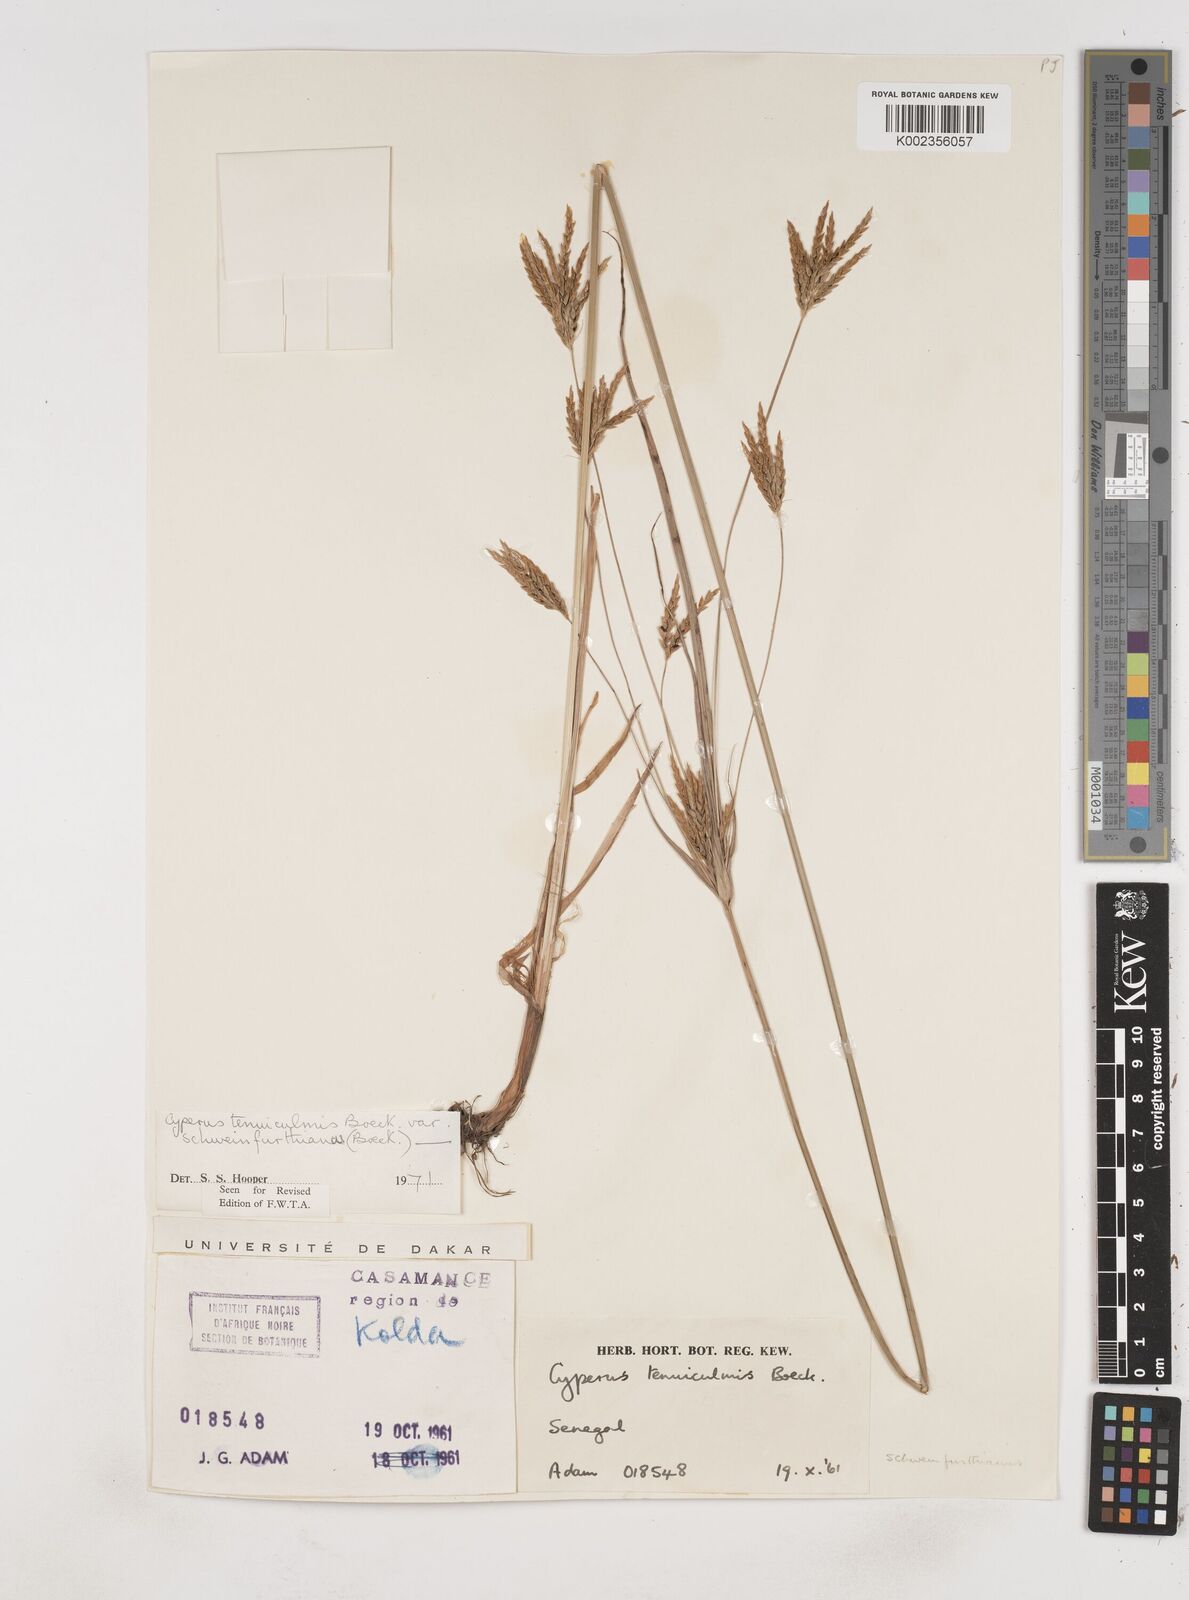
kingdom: Plantae
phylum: Tracheophyta
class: Liliopsida
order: Poales
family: Cyperaceae
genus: Cyperus
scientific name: Cyperus tenuiculmis
